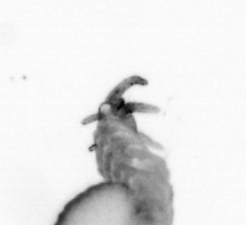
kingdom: Animalia
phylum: Annelida
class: Polychaeta
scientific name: Polychaeta
